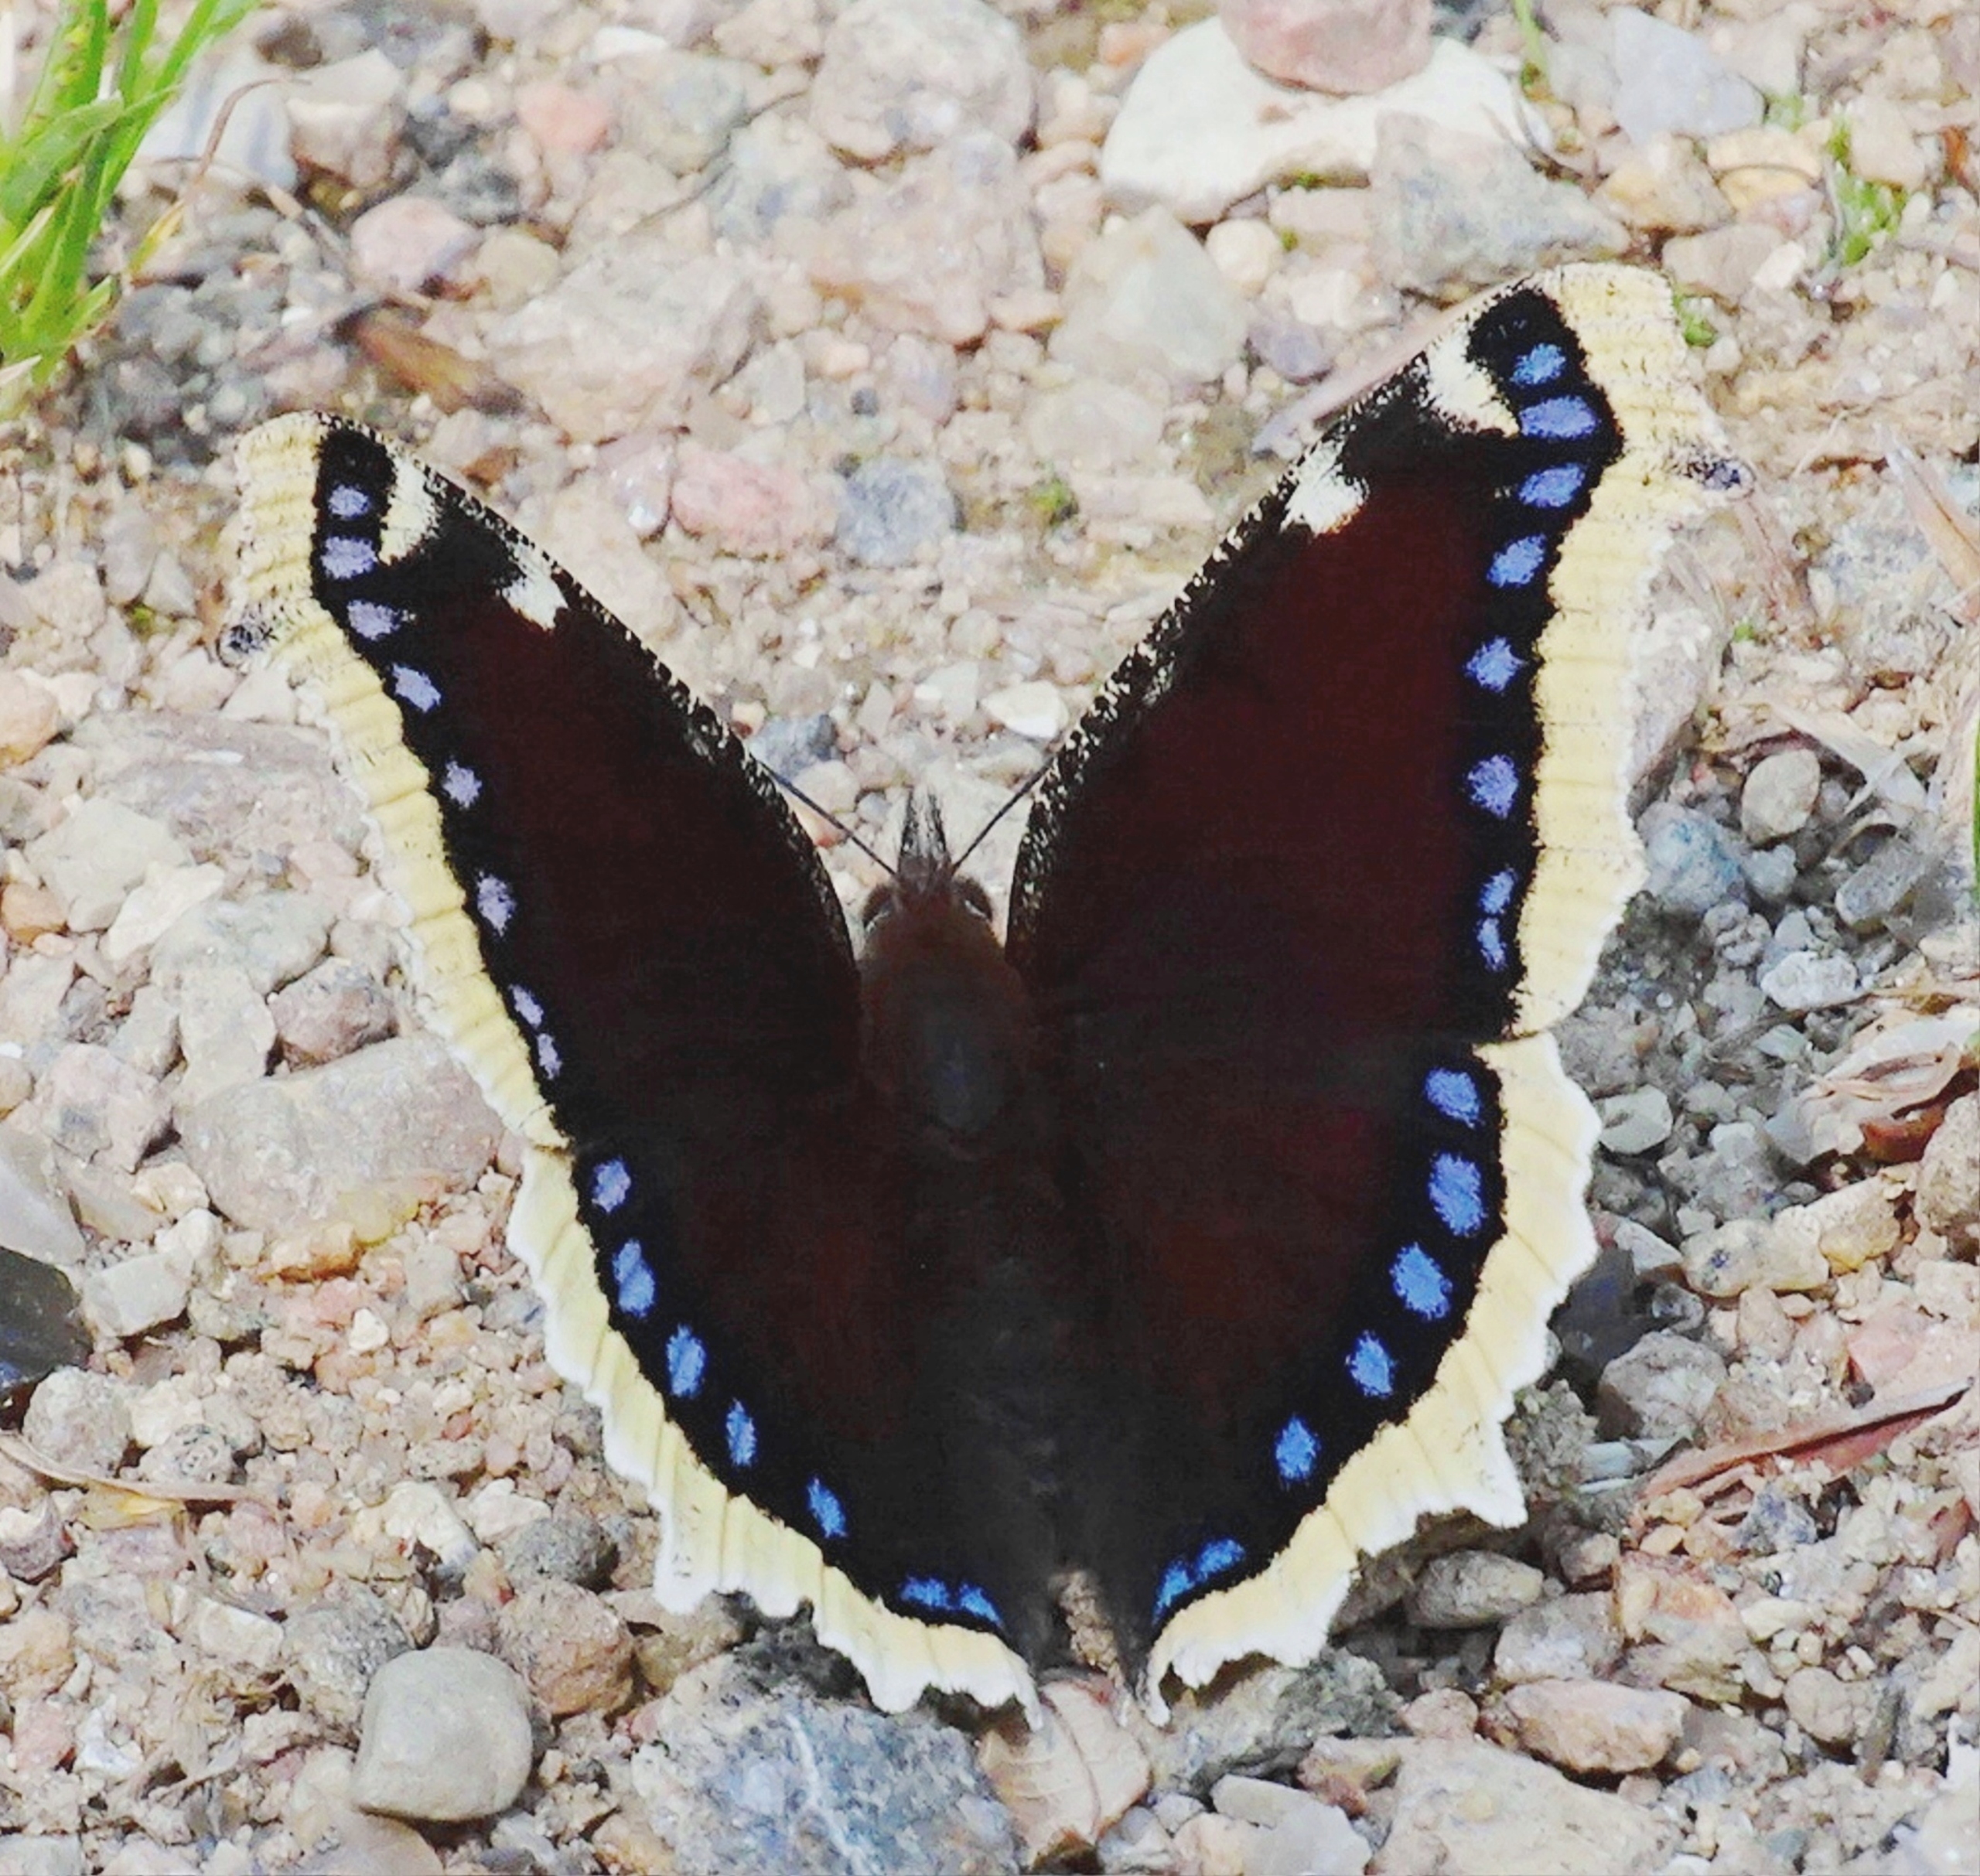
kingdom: Animalia
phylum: Arthropoda
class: Insecta
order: Lepidoptera
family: Nymphalidae
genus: Nymphalis
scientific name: Nymphalis antiopa
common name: Sørgekåbe
